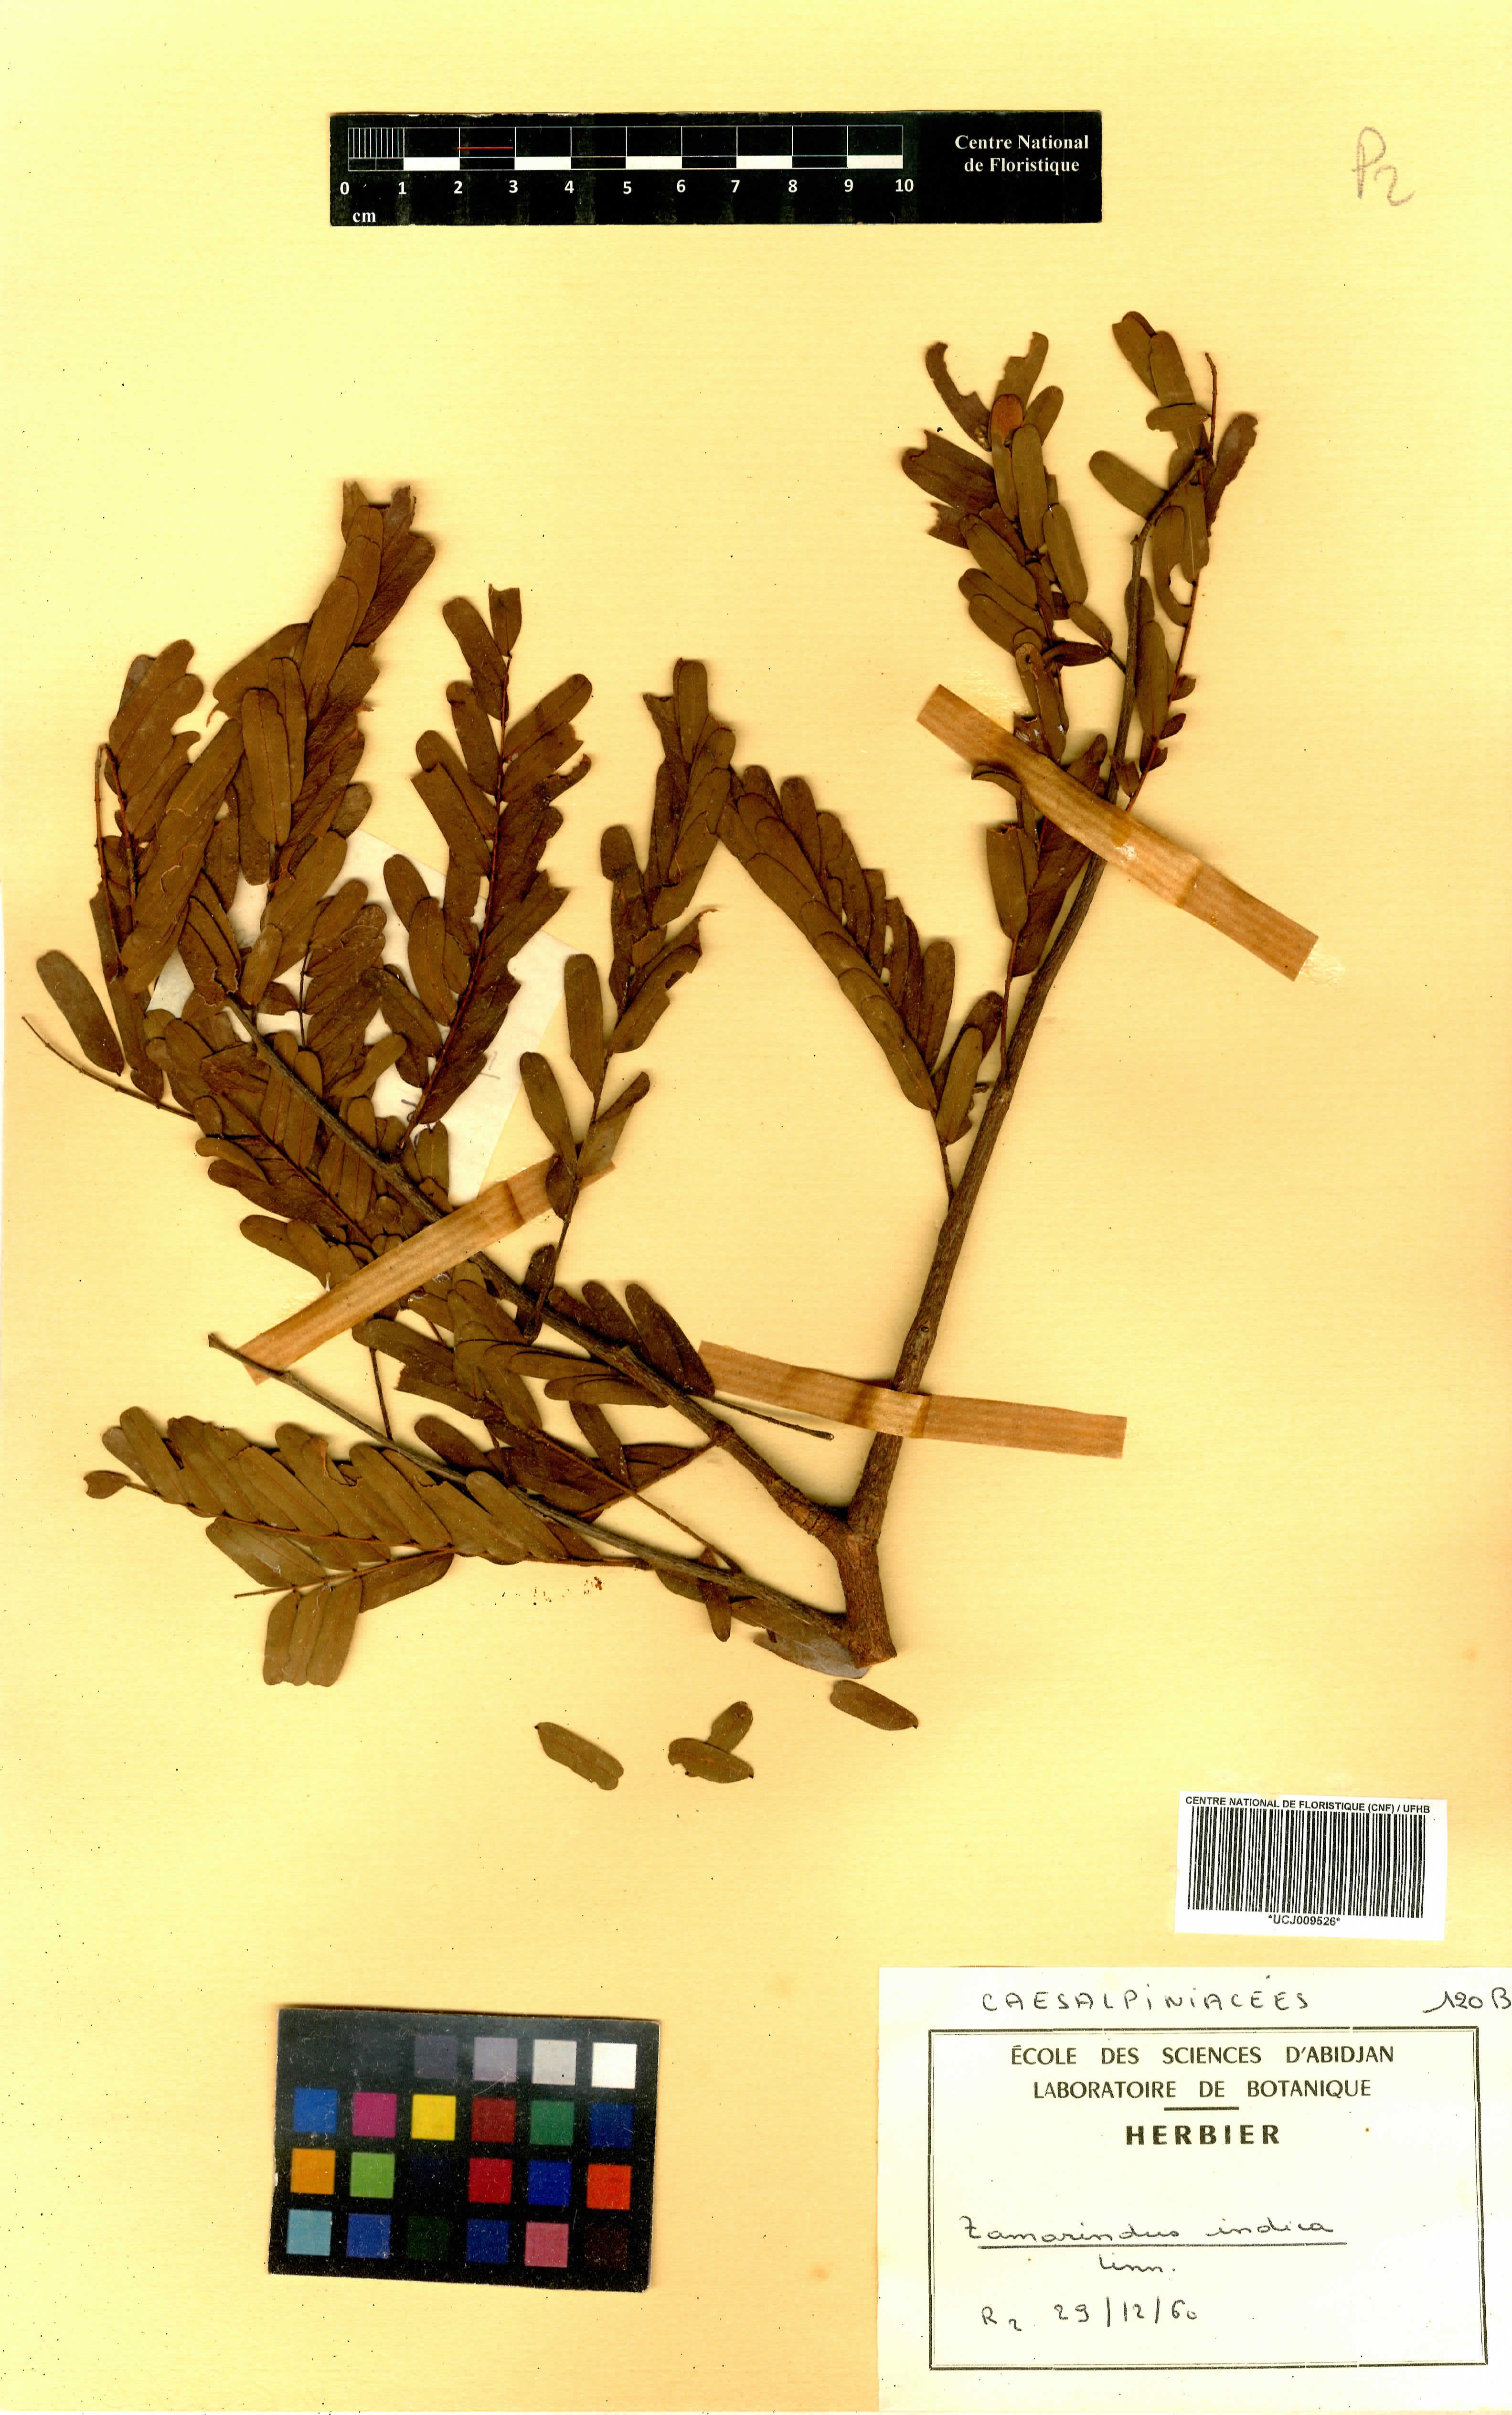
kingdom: Plantae
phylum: Tracheophyta
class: Magnoliopsida
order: Fabales
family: Fabaceae
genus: Tamarindus
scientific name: Tamarindus indica
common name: Tamarind
